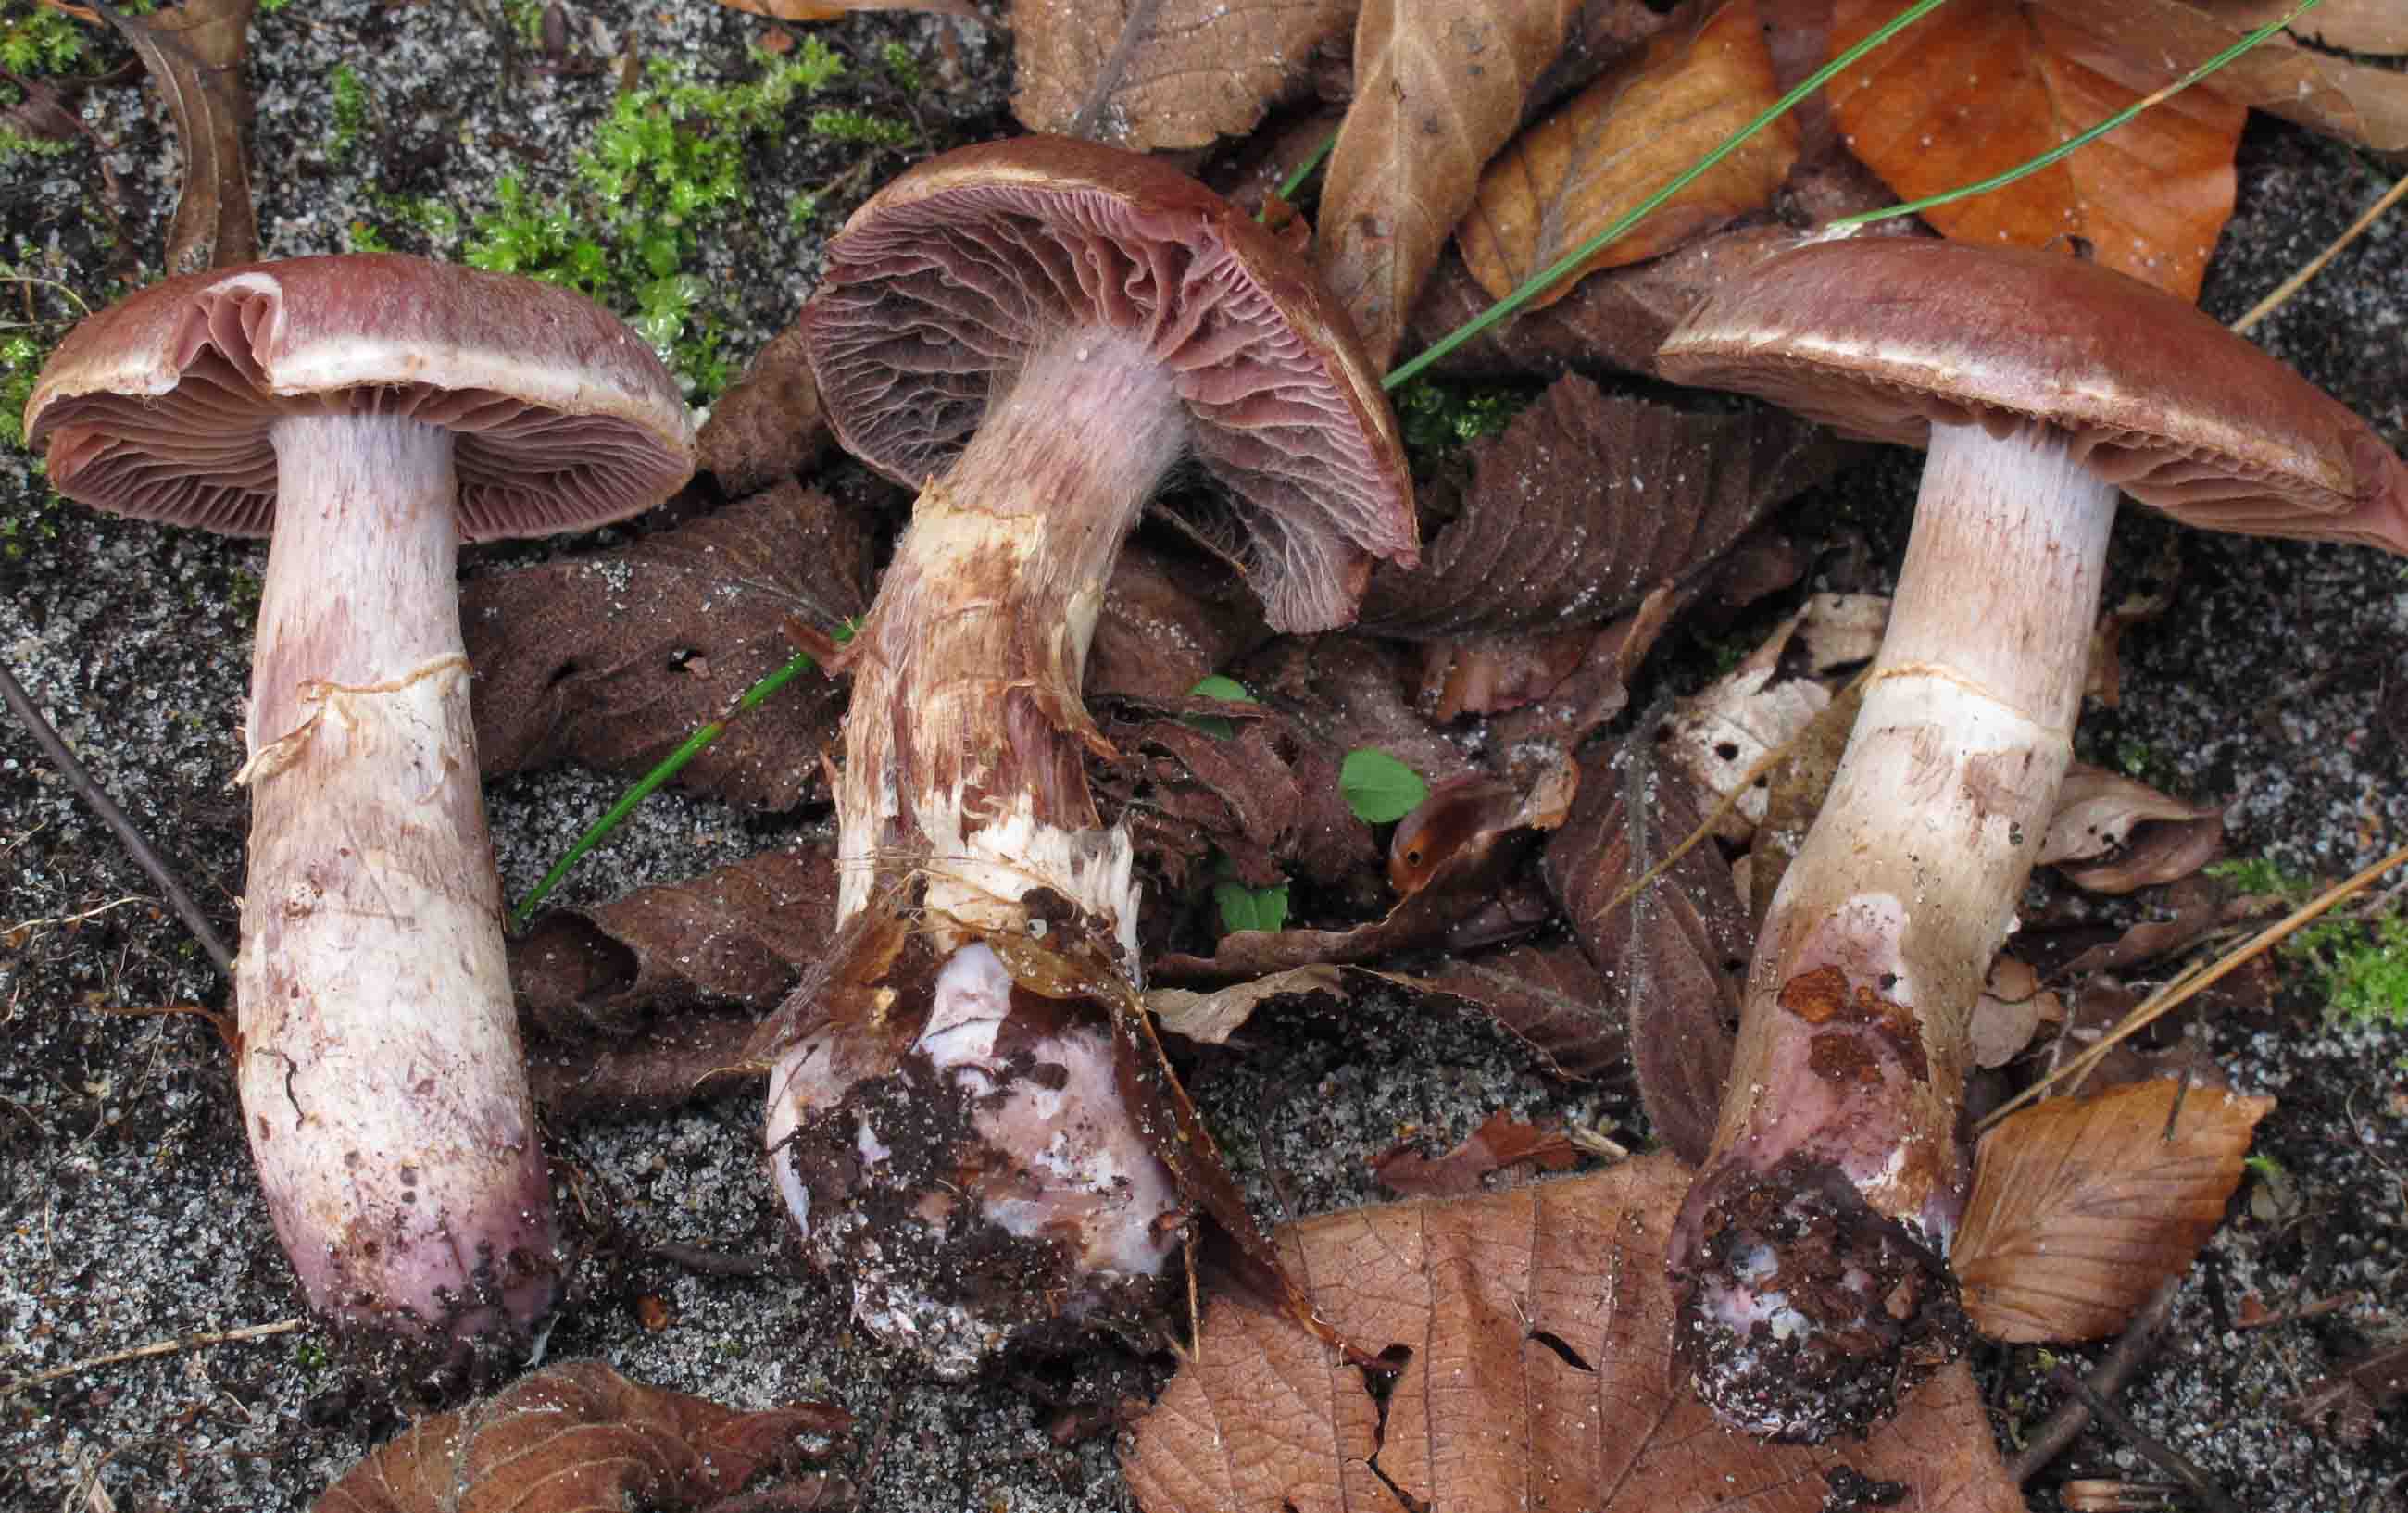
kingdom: Fungi
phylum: Basidiomycota
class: Agaricomycetes
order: Agaricales
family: Cortinariaceae
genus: Cortinarius
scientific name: Cortinarius torvus
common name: champignonagtig slørhat
